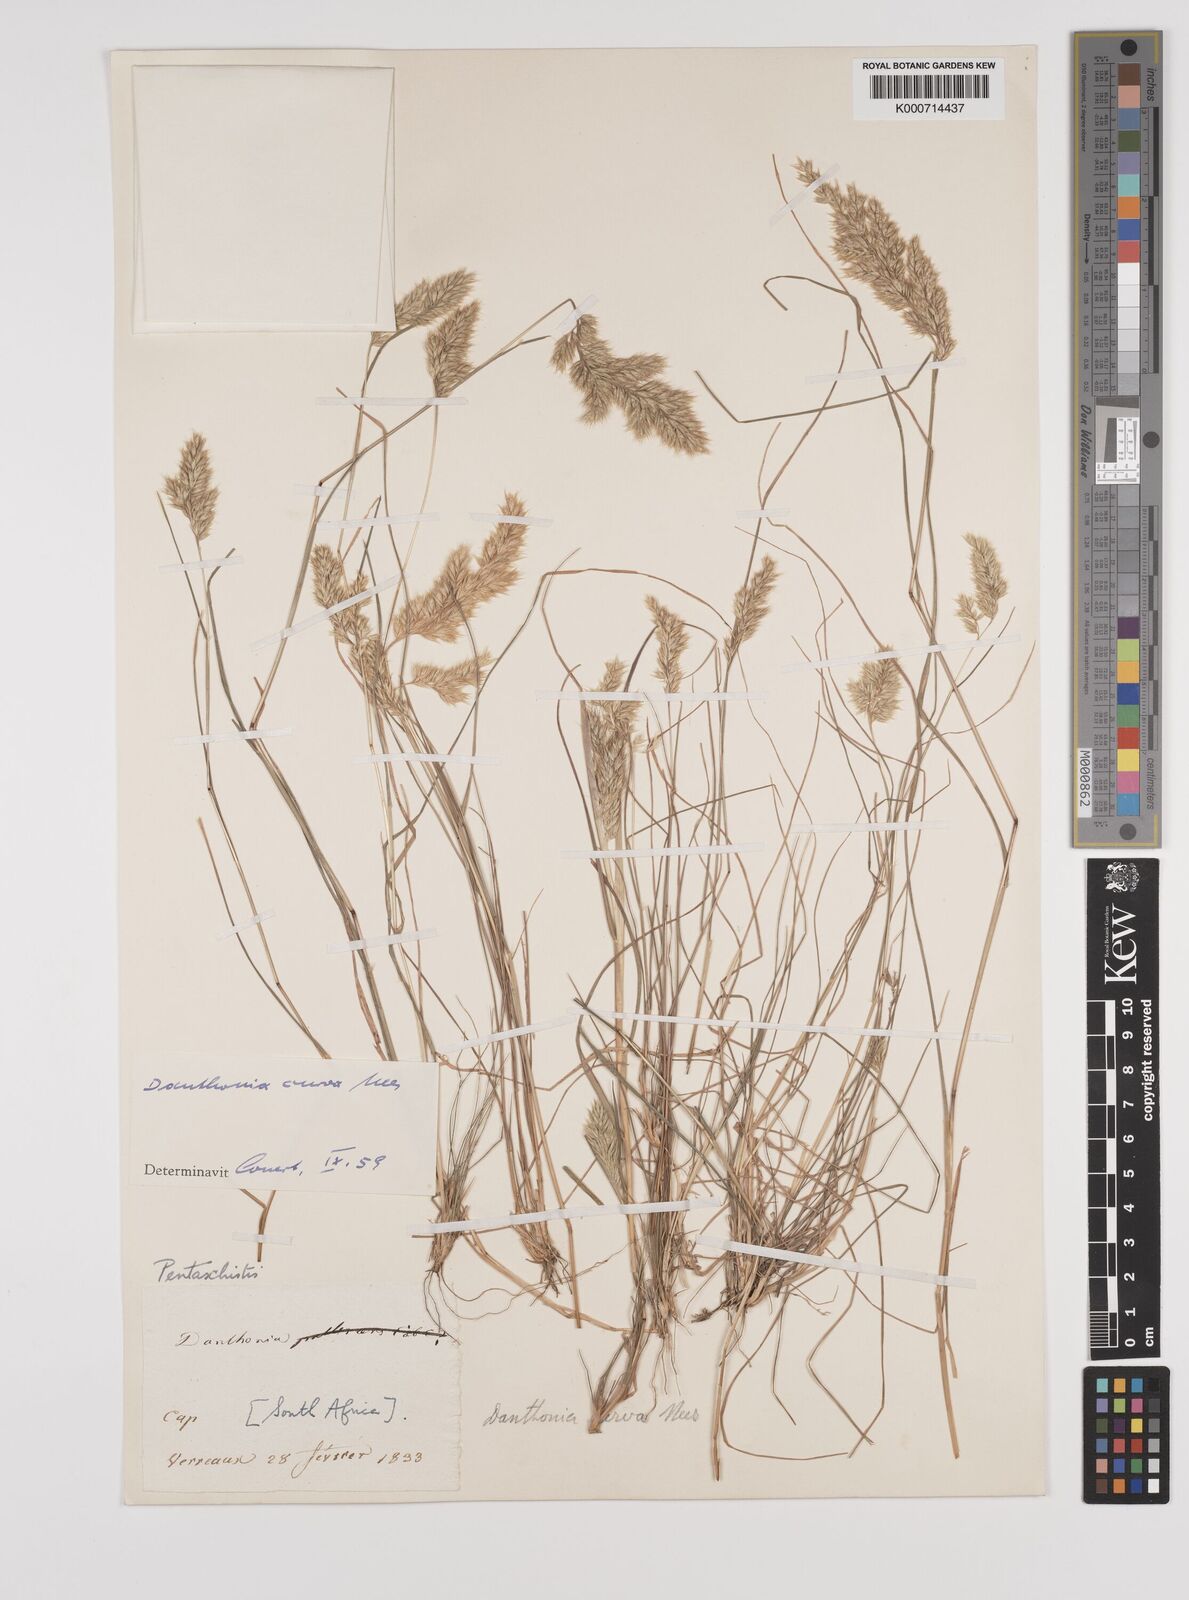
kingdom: Plantae
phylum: Tracheophyta
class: Liliopsida
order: Poales
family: Poaceae
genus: Rytidosperma
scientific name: Rytidosperma
